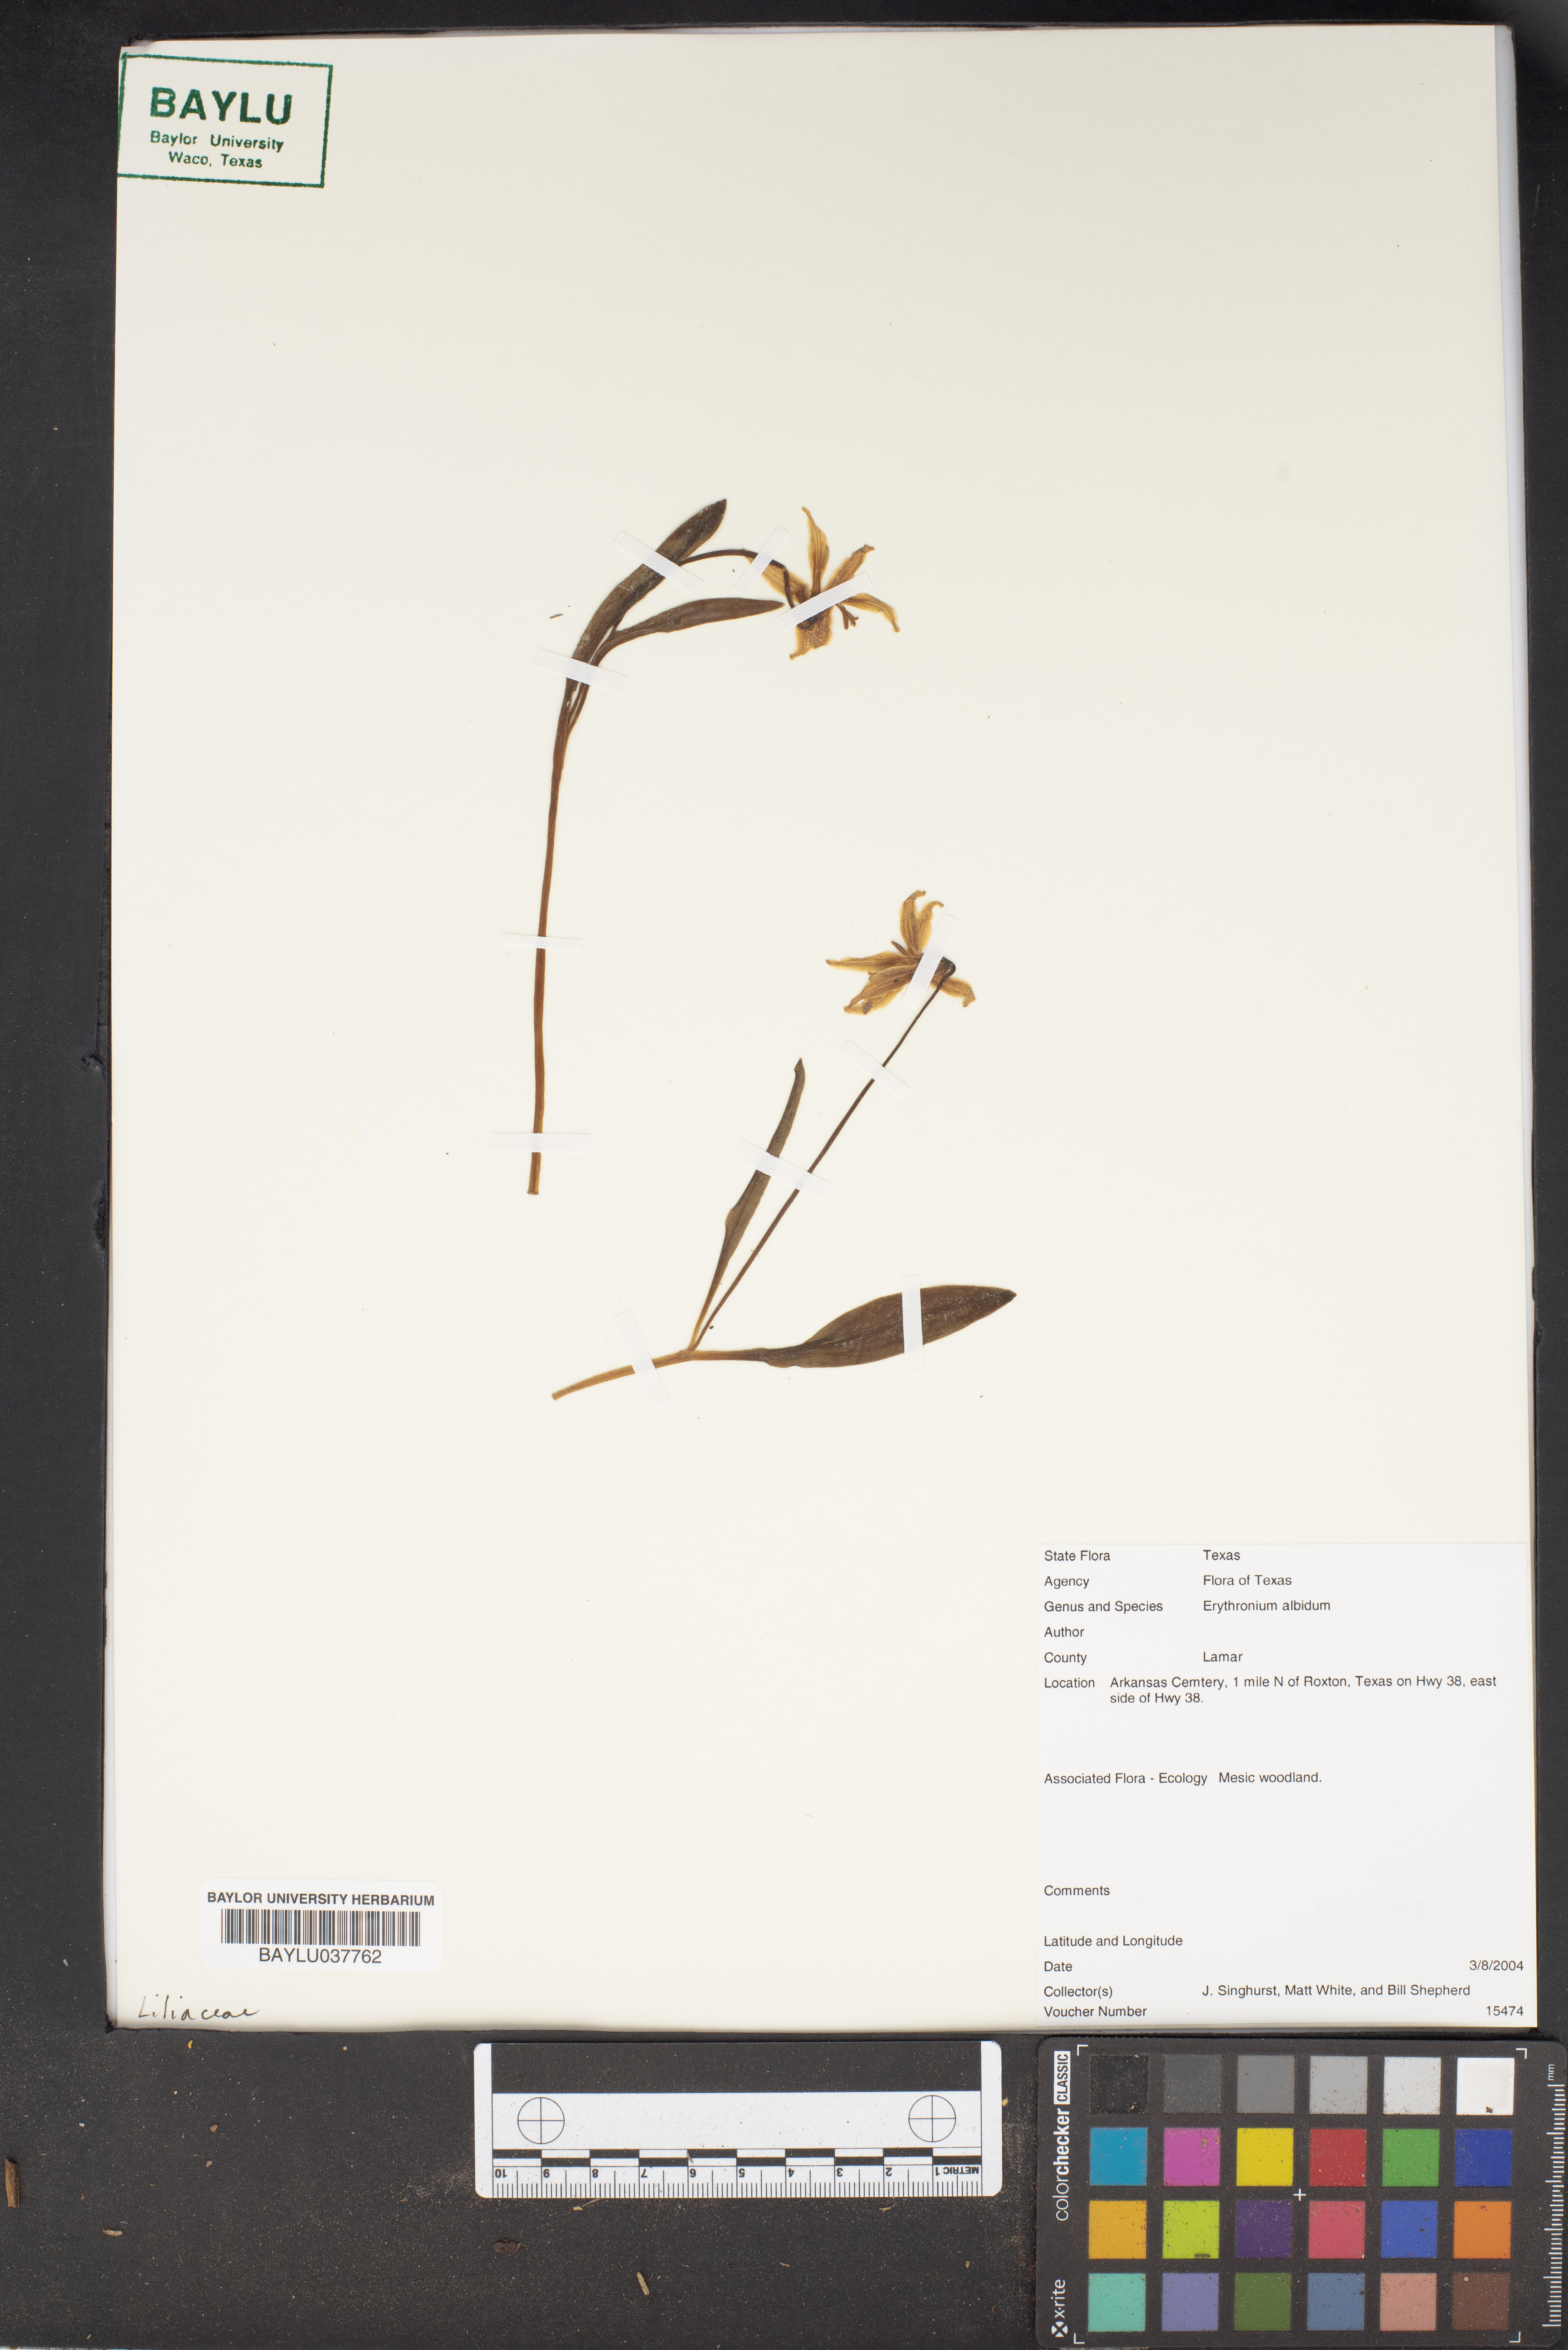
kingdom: Plantae
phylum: Tracheophyta
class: Liliopsida
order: Liliales
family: Liliaceae
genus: Erythronium
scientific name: Erythronium albidum
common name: White trout-lily
